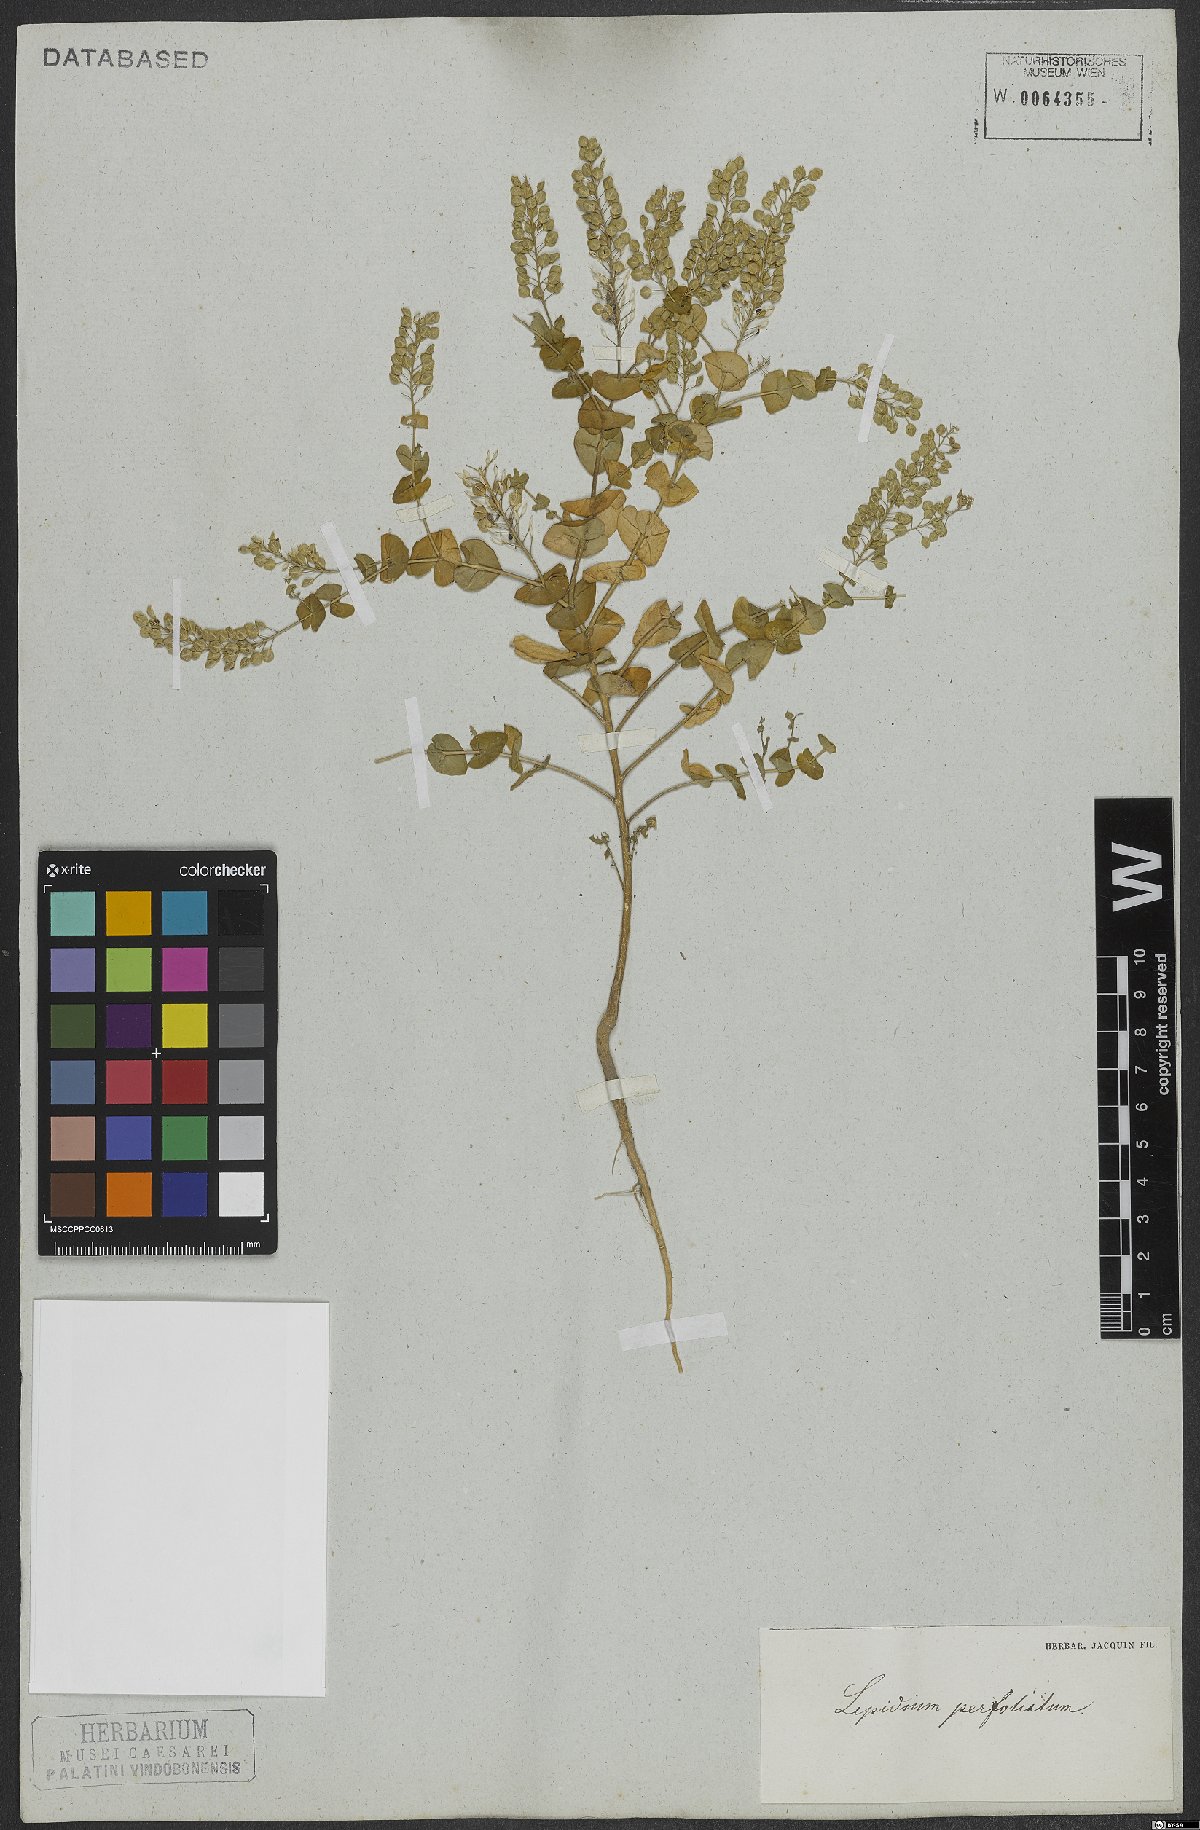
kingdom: Plantae
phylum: Tracheophyta
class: Magnoliopsida
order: Brassicales
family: Brassicaceae
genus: Lepidium
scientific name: Lepidium perfoliatum
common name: Perfoliate pepperwort
